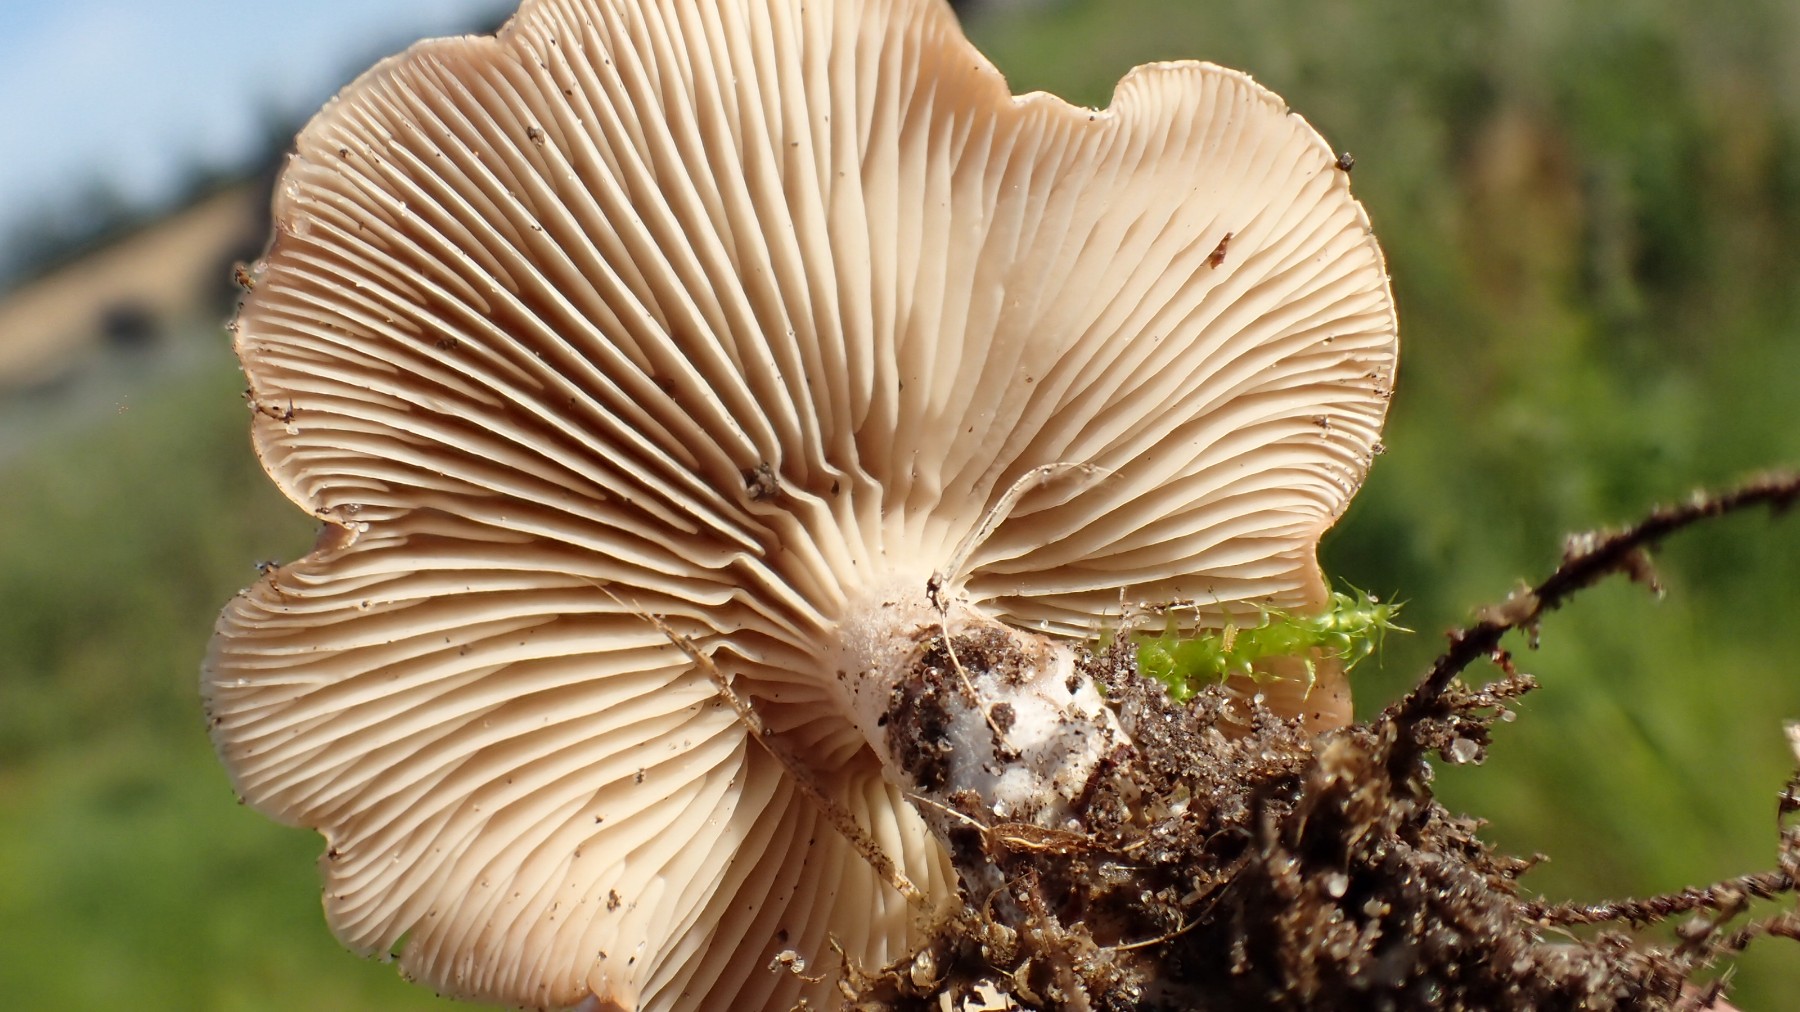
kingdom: Fungi
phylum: Basidiomycota
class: Agaricomycetes
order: Agaricales
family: Tricholomataceae
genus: Clitocybe
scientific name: Clitocybe
